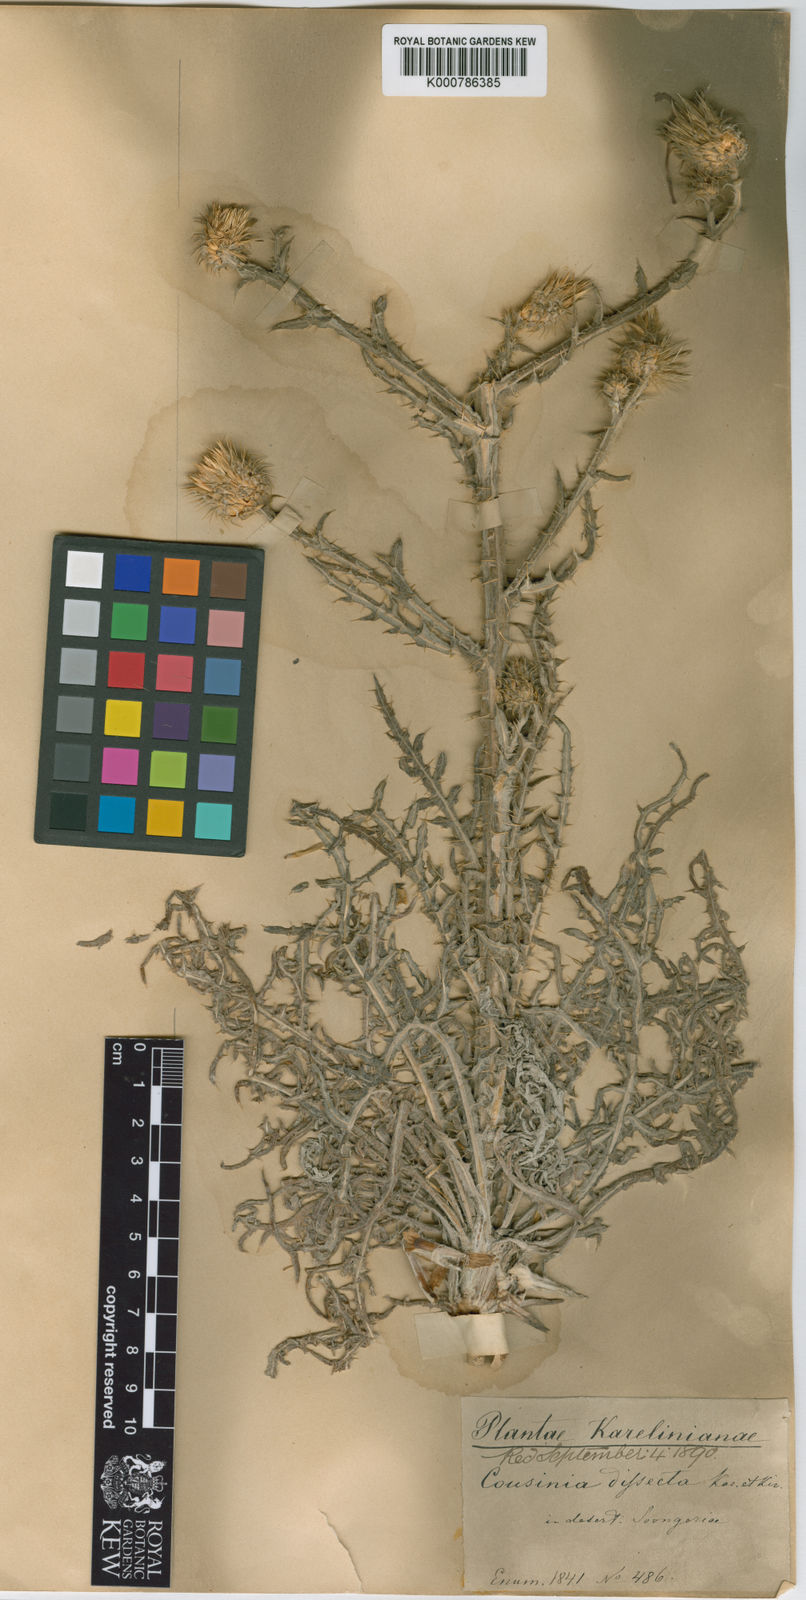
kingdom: Plantae
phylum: Tracheophyta
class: Magnoliopsida
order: Asterales
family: Asteraceae
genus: Cousinia
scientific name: Cousinia dissecta
